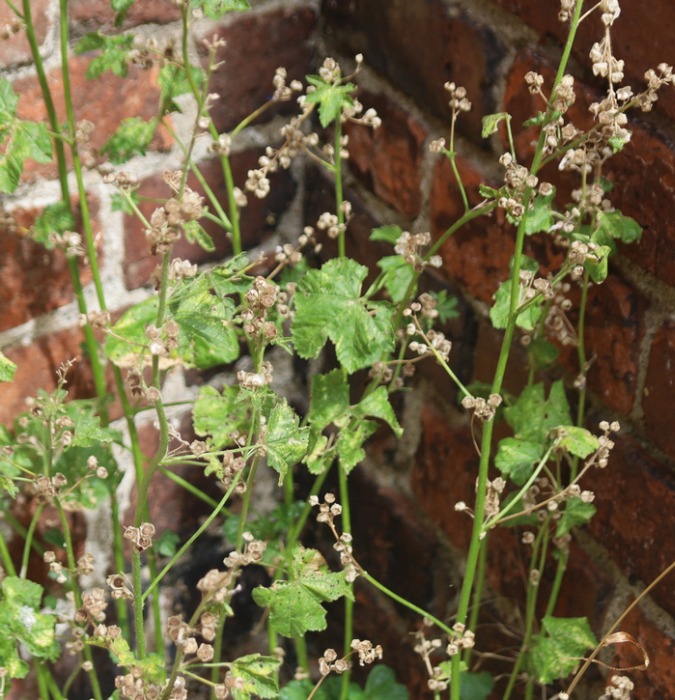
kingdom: Plantae
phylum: Tracheophyta
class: Magnoliopsida
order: Malvales
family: Malvaceae
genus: Malva
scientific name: Malva sylvestris
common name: Almindelig katost
